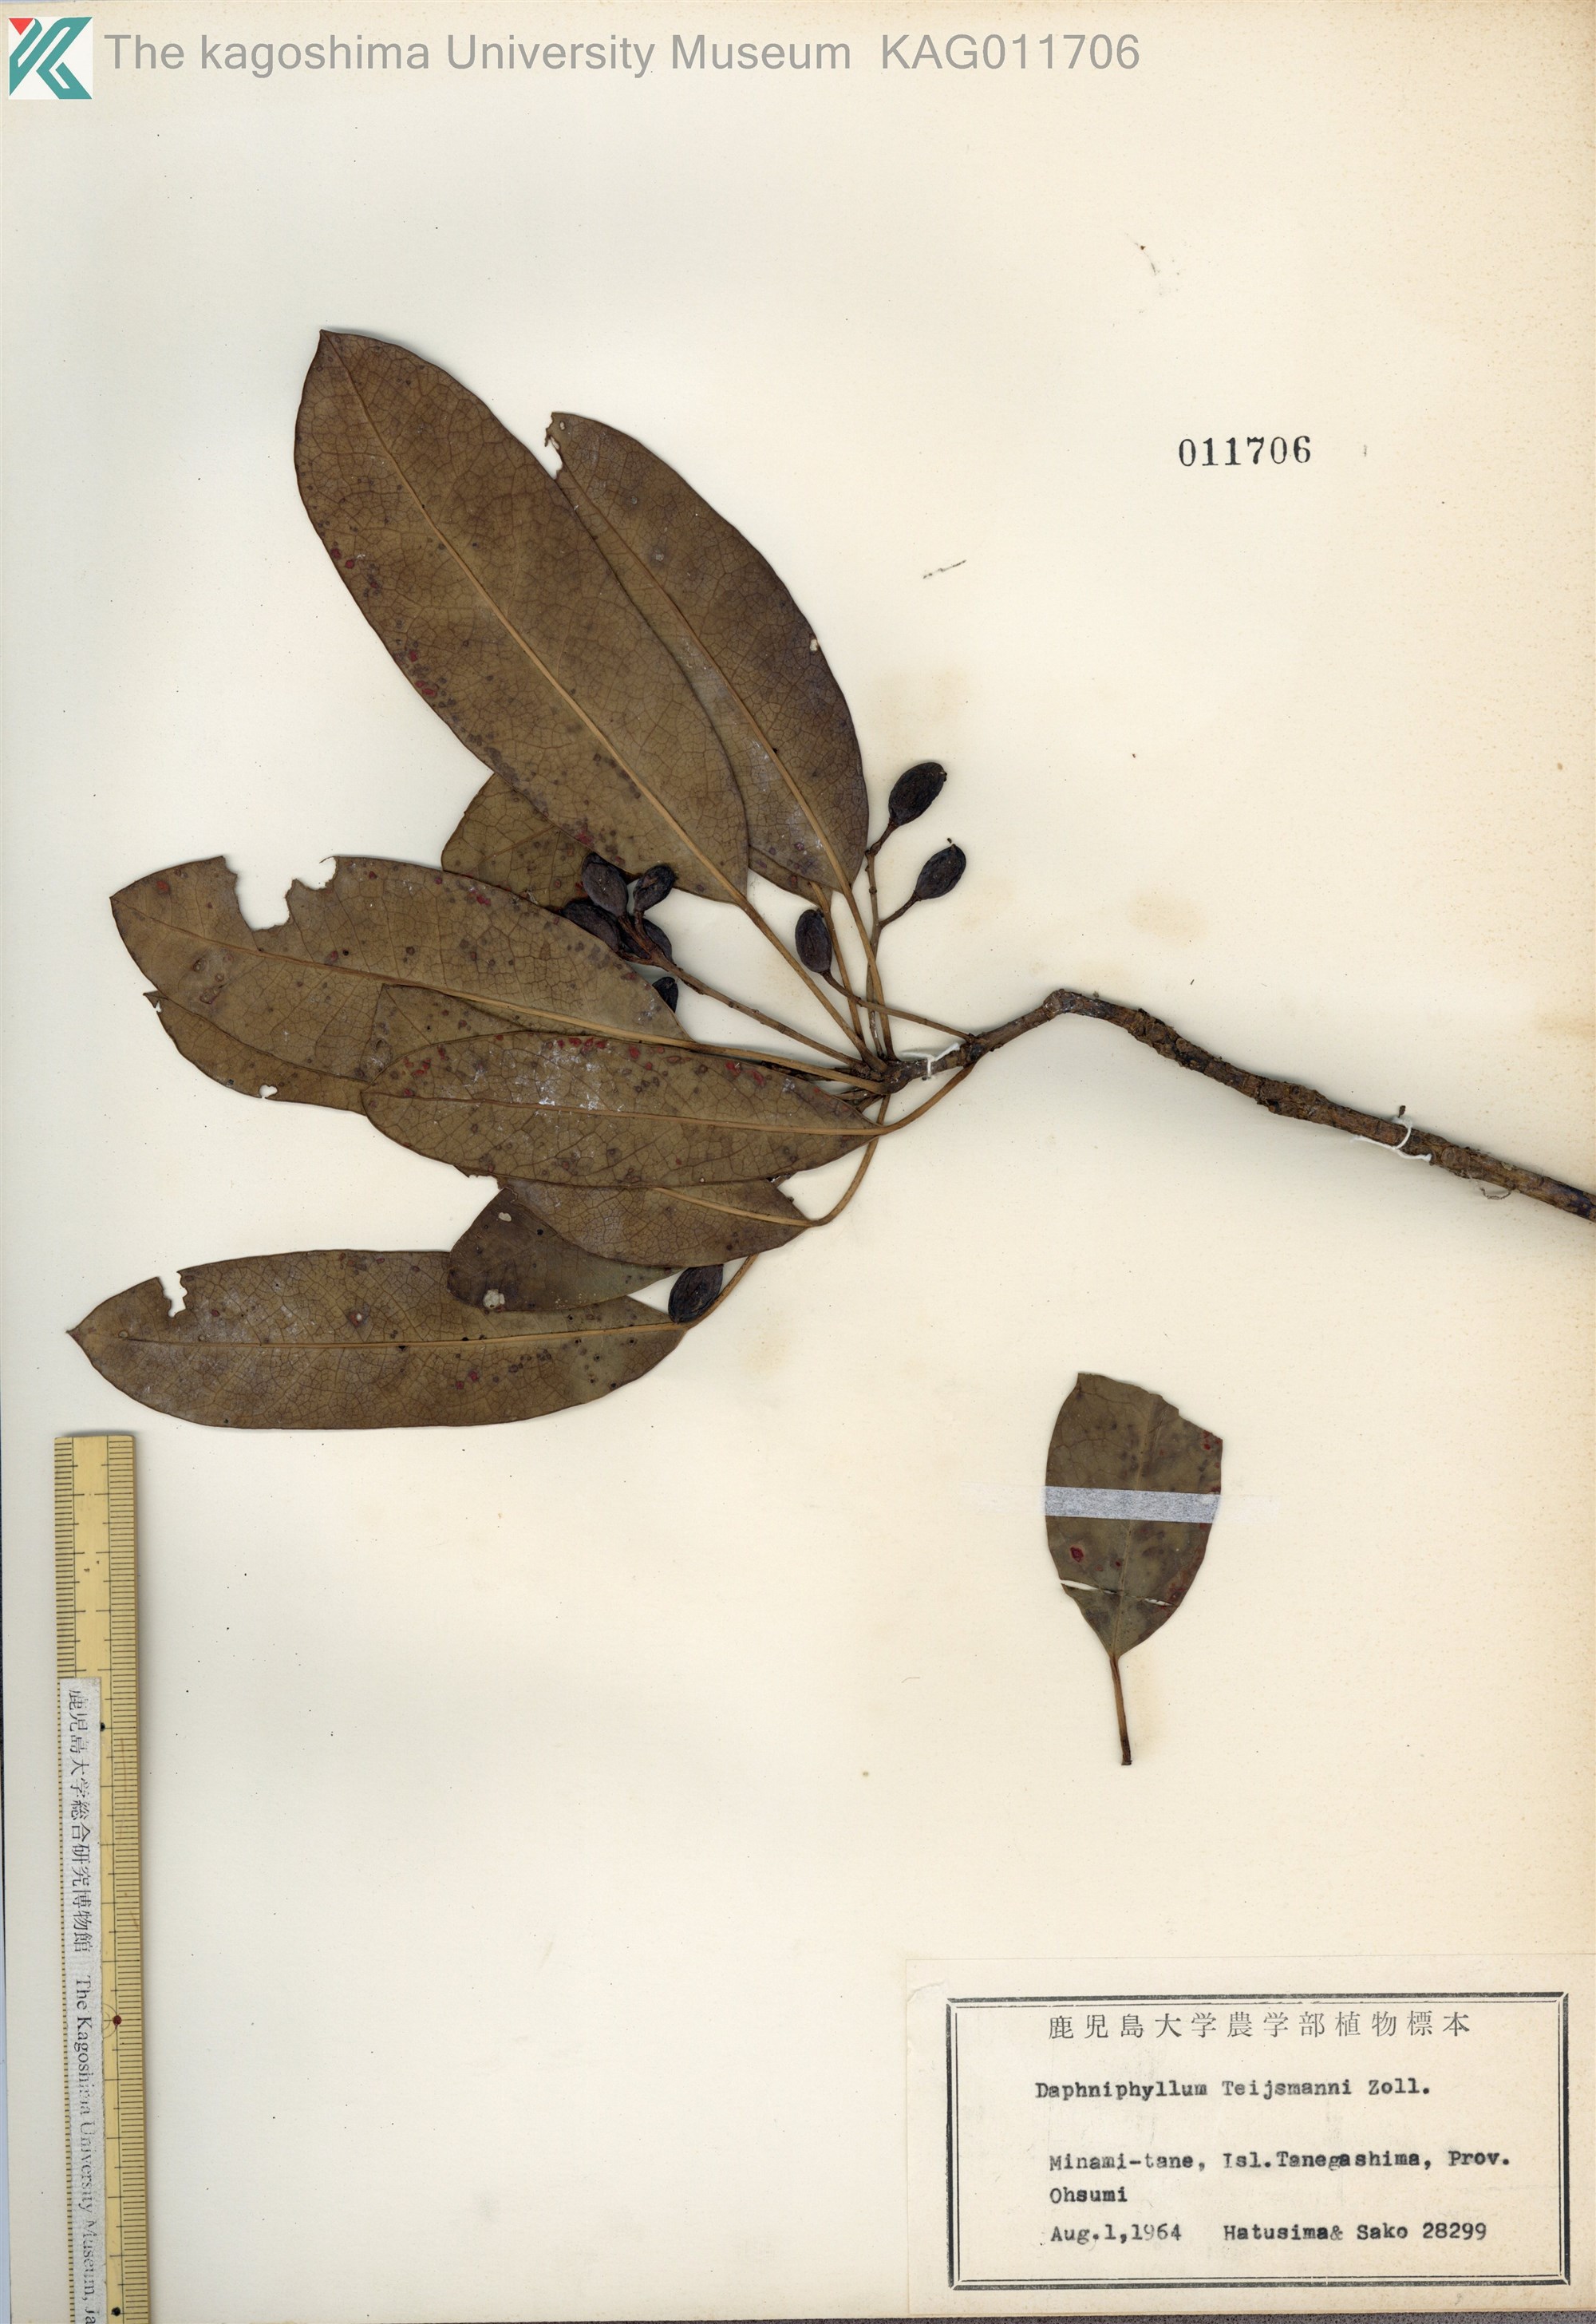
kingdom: Plantae
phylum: Tracheophyta
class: Magnoliopsida
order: Saxifragales
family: Daphniphyllaceae
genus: Daphniphyllum
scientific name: Daphniphyllum teijsmannii
